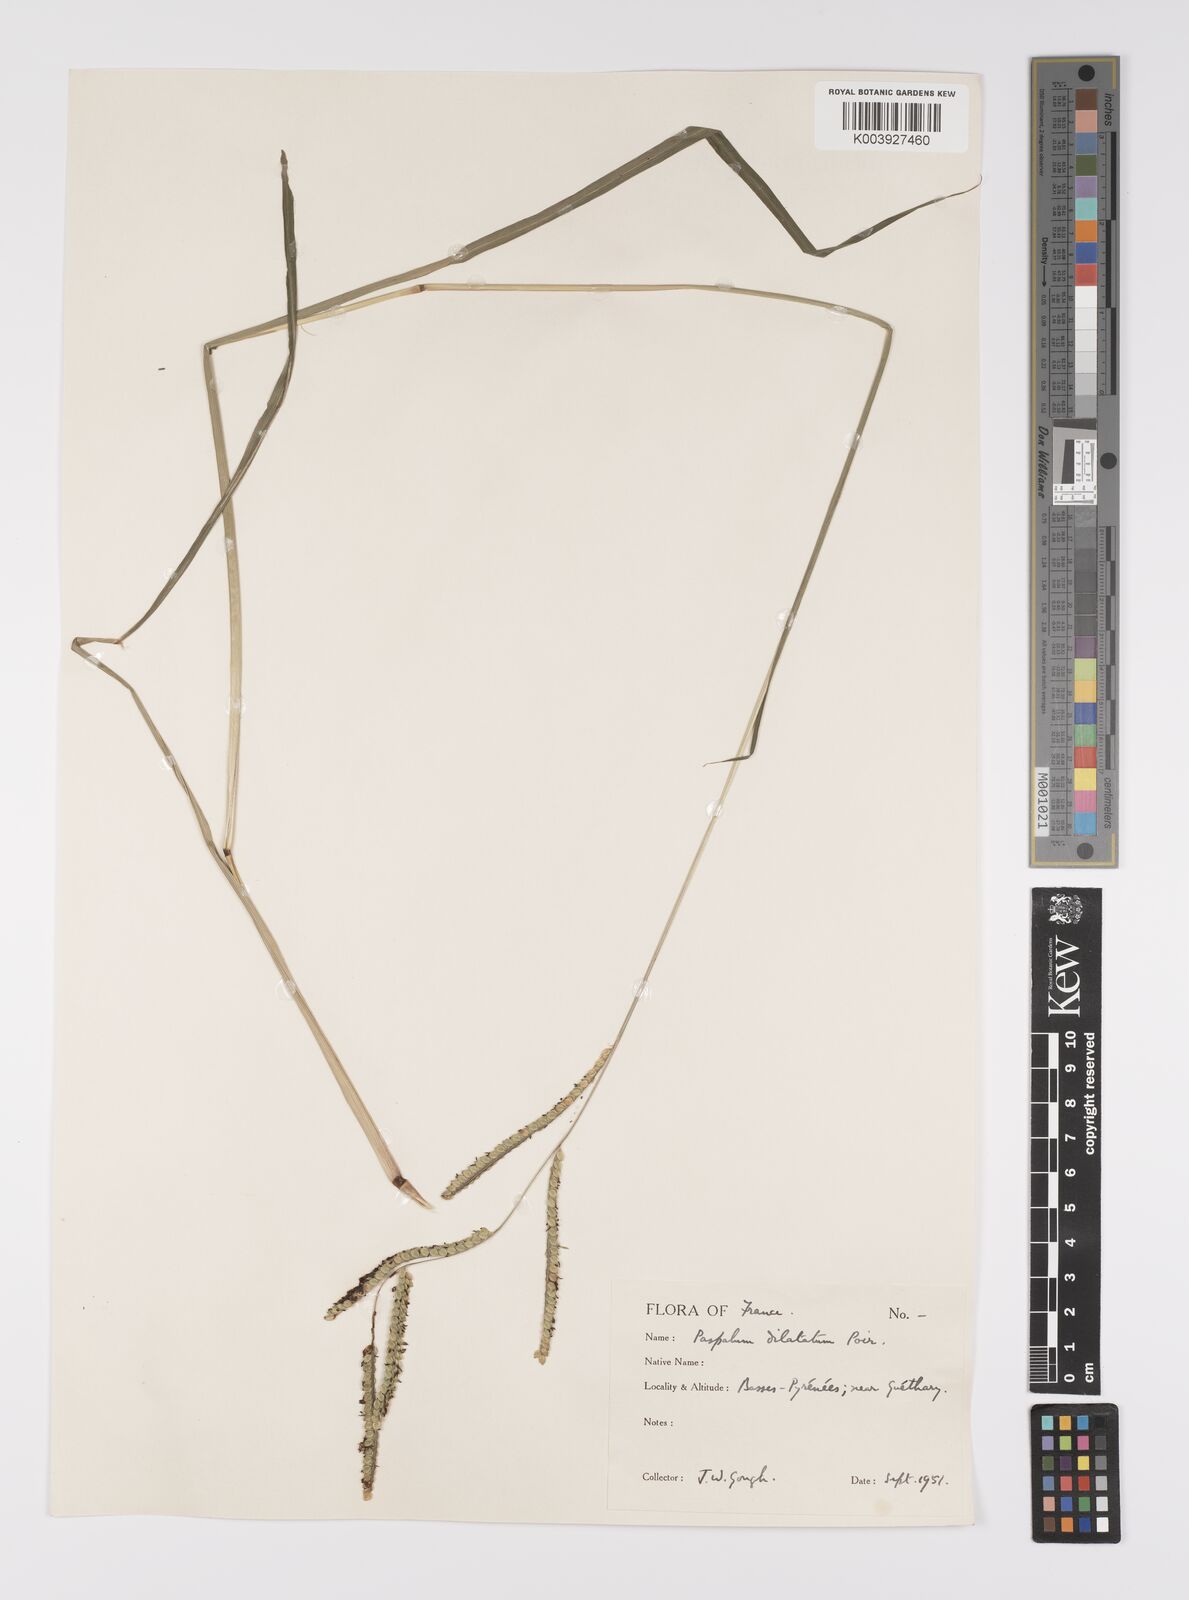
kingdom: Plantae
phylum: Tracheophyta
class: Liliopsida
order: Poales
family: Poaceae
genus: Paspalum
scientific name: Paspalum dilatatum
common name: Dallisgrass
